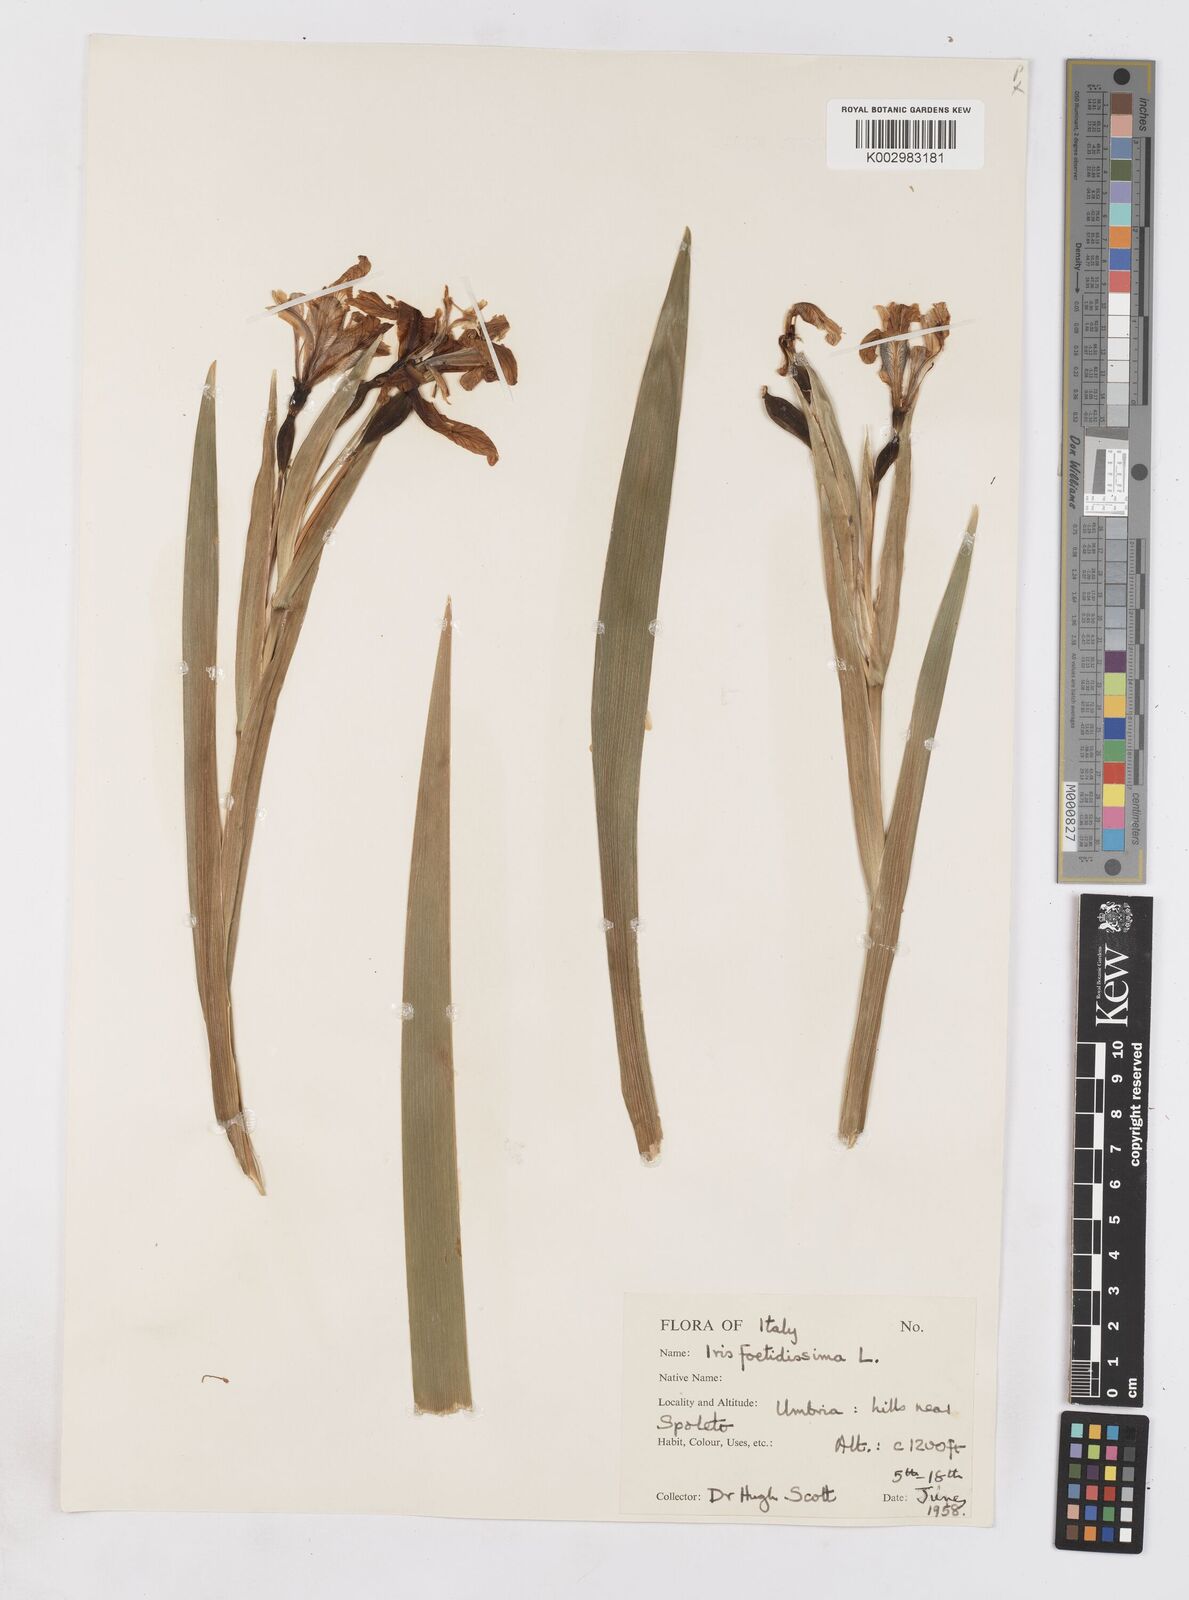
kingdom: Plantae
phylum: Tracheophyta
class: Liliopsida
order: Asparagales
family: Iridaceae
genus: Iris
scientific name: Iris foetidissima
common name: Stinking iris
